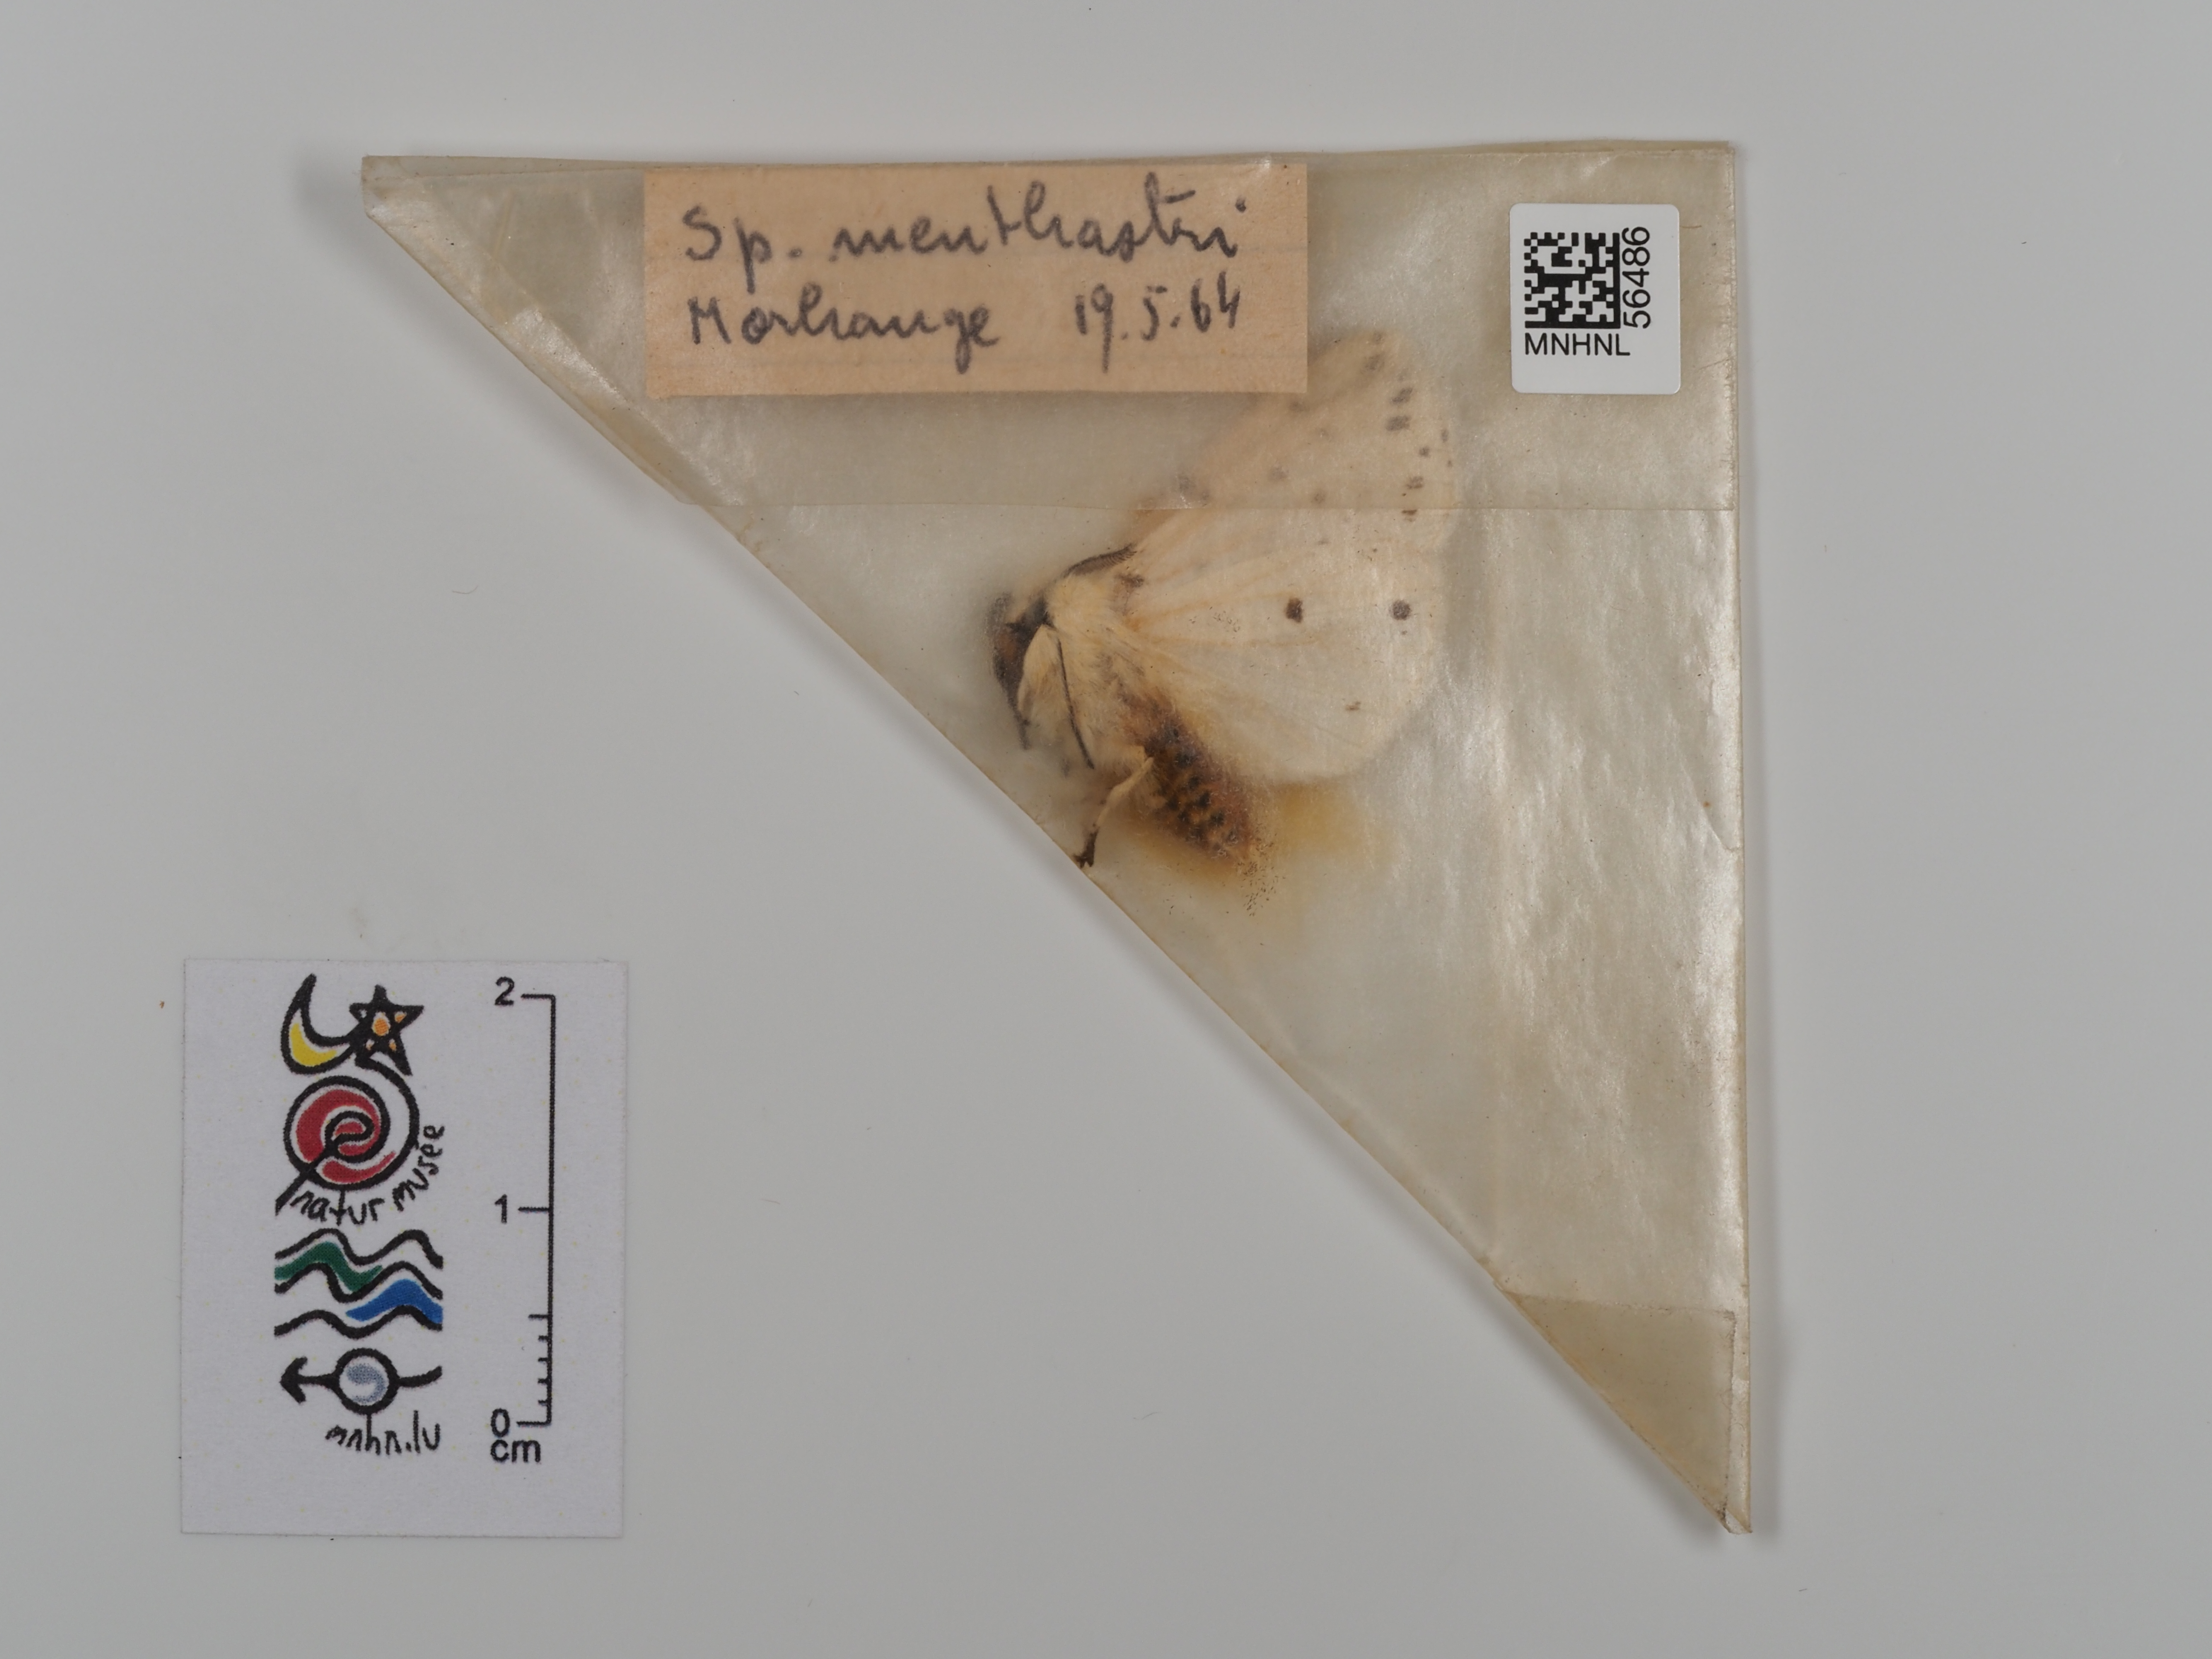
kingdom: Animalia
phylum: Arthropoda
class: Insecta
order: Lepidoptera
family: Erebidae
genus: Spilosoma
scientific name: Spilosoma lubricipeda
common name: White ermine
